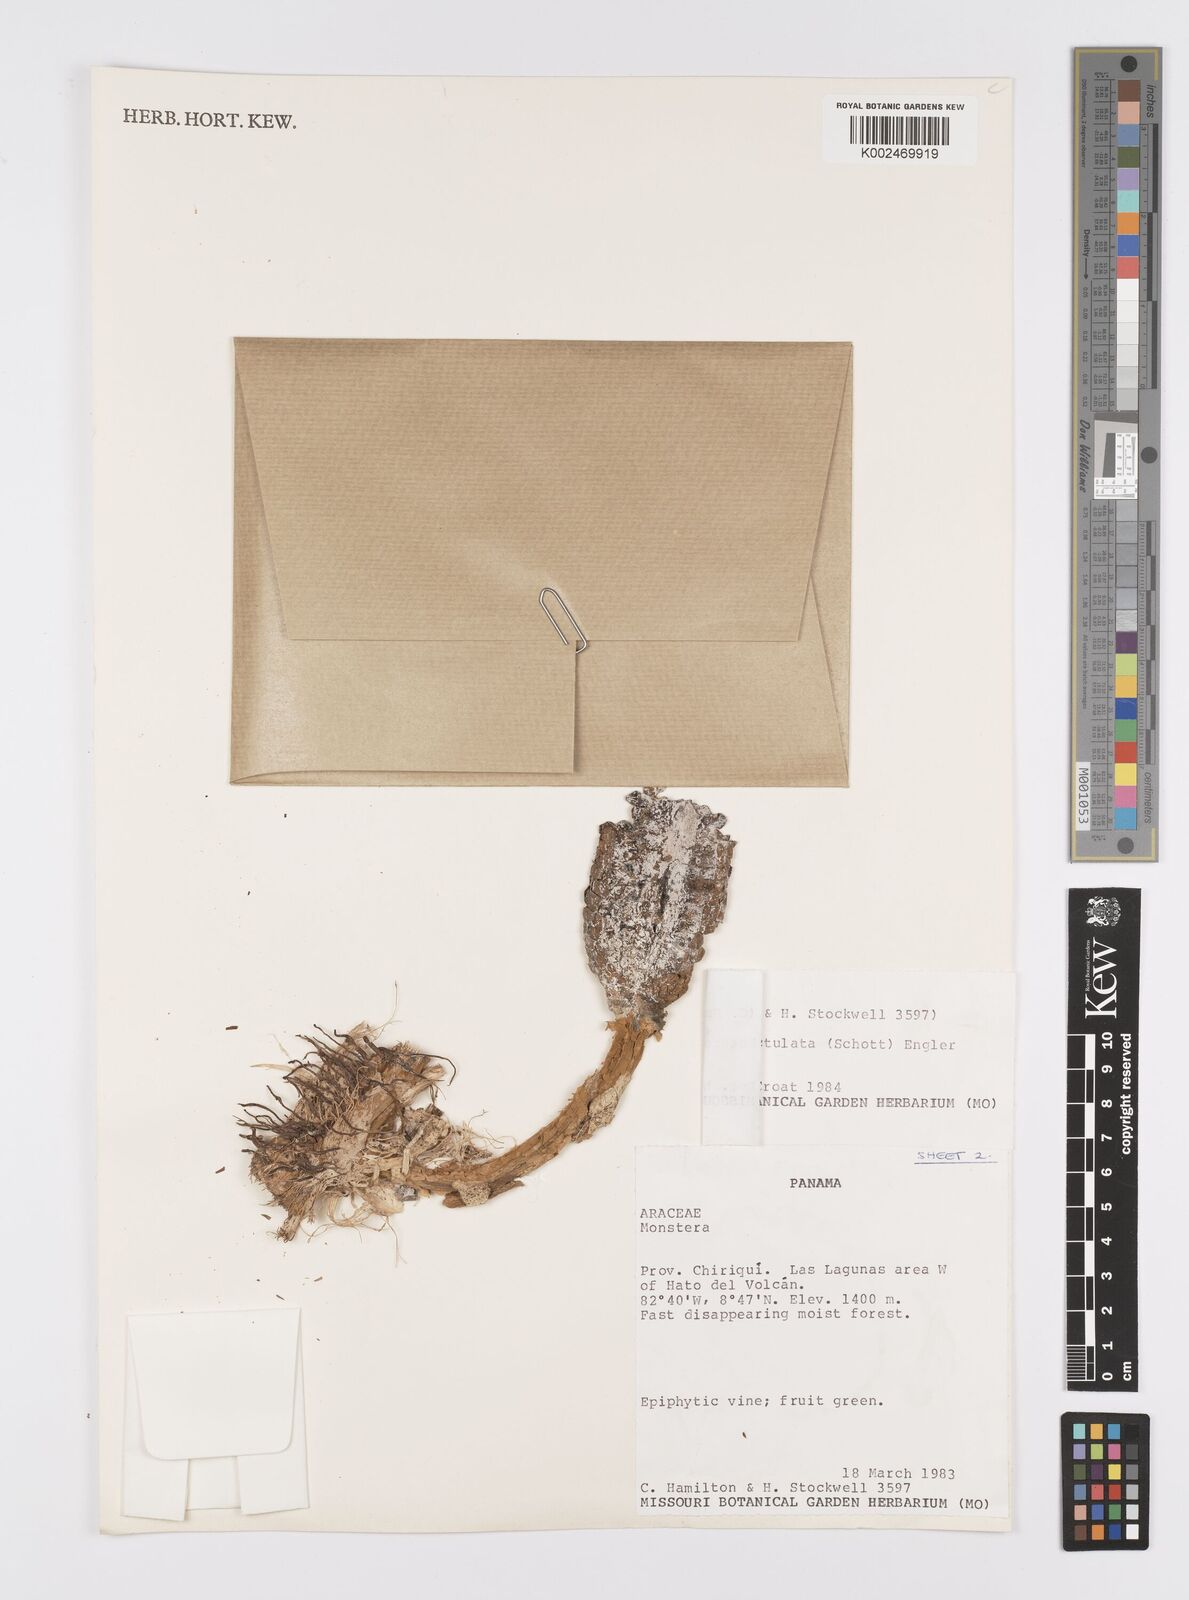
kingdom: Plantae
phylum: Tracheophyta
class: Liliopsida
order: Alismatales
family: Araceae
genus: Monstera
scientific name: Monstera punctulata
